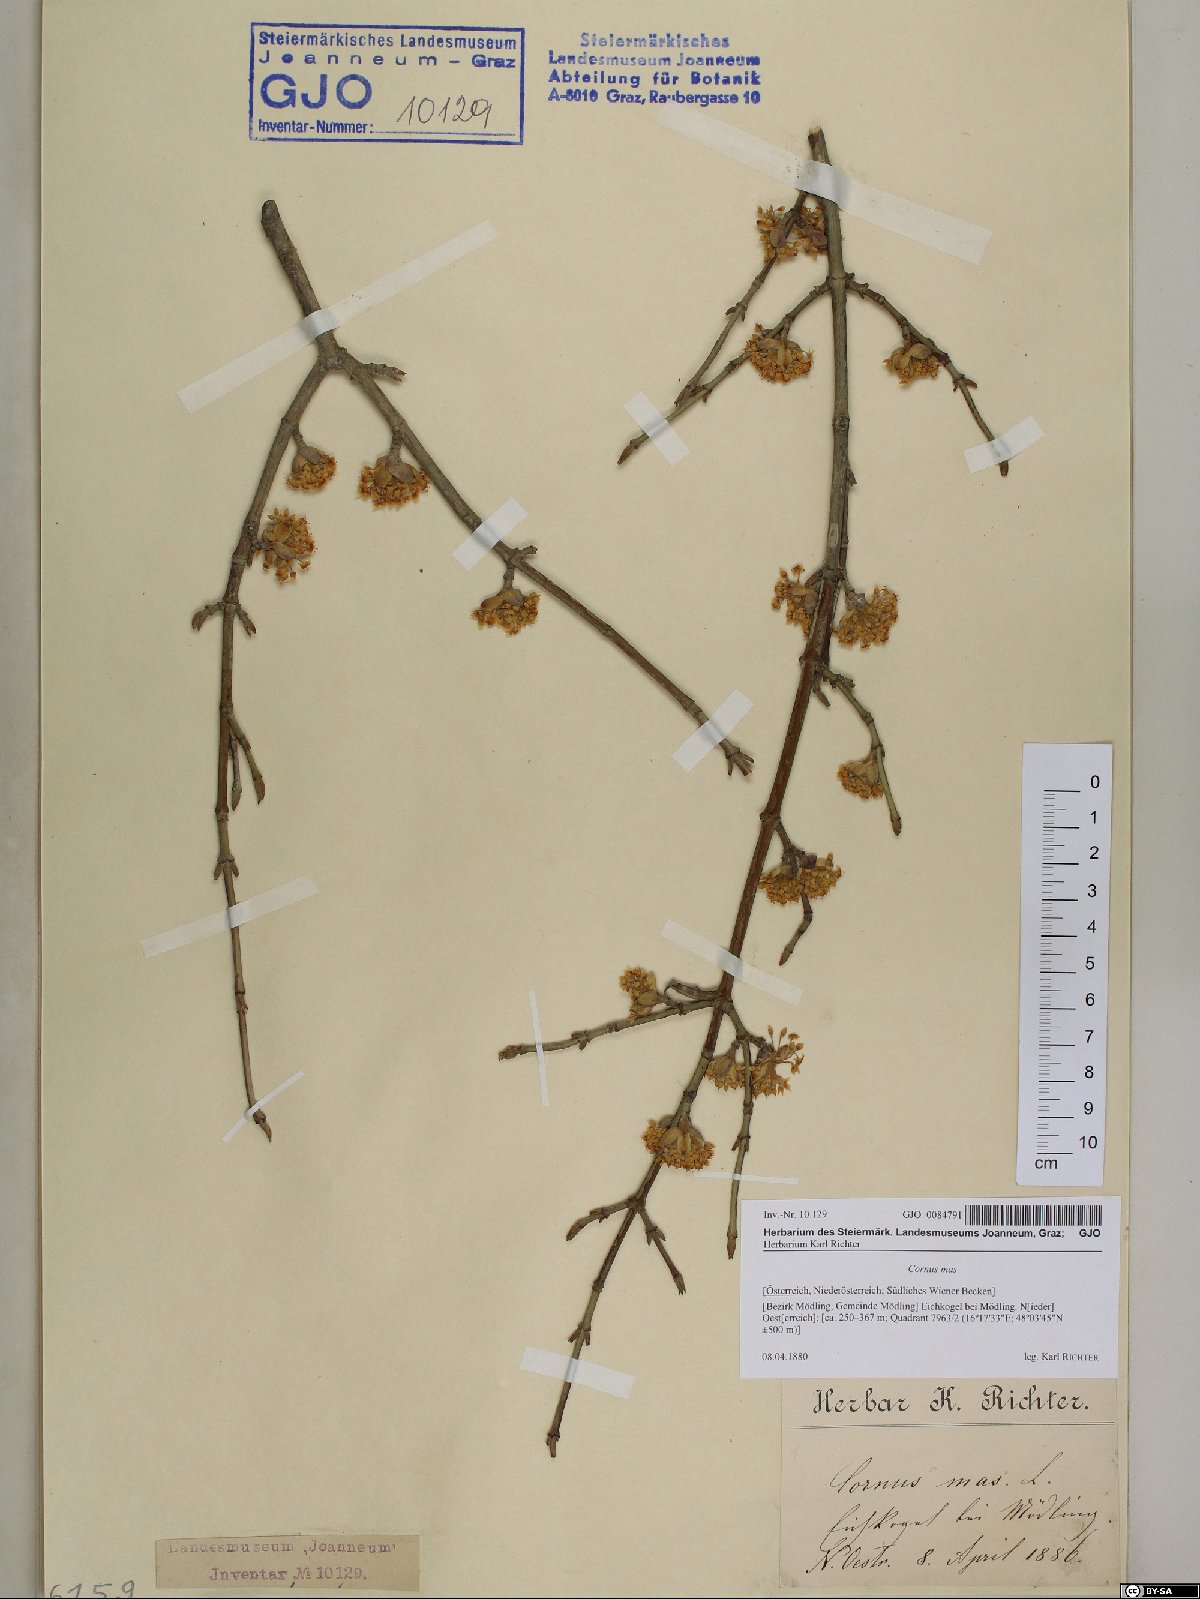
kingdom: Plantae
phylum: Tracheophyta
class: Magnoliopsida
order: Cornales
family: Cornaceae
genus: Cornus
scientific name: Cornus mas
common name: Cornelian-cherry
